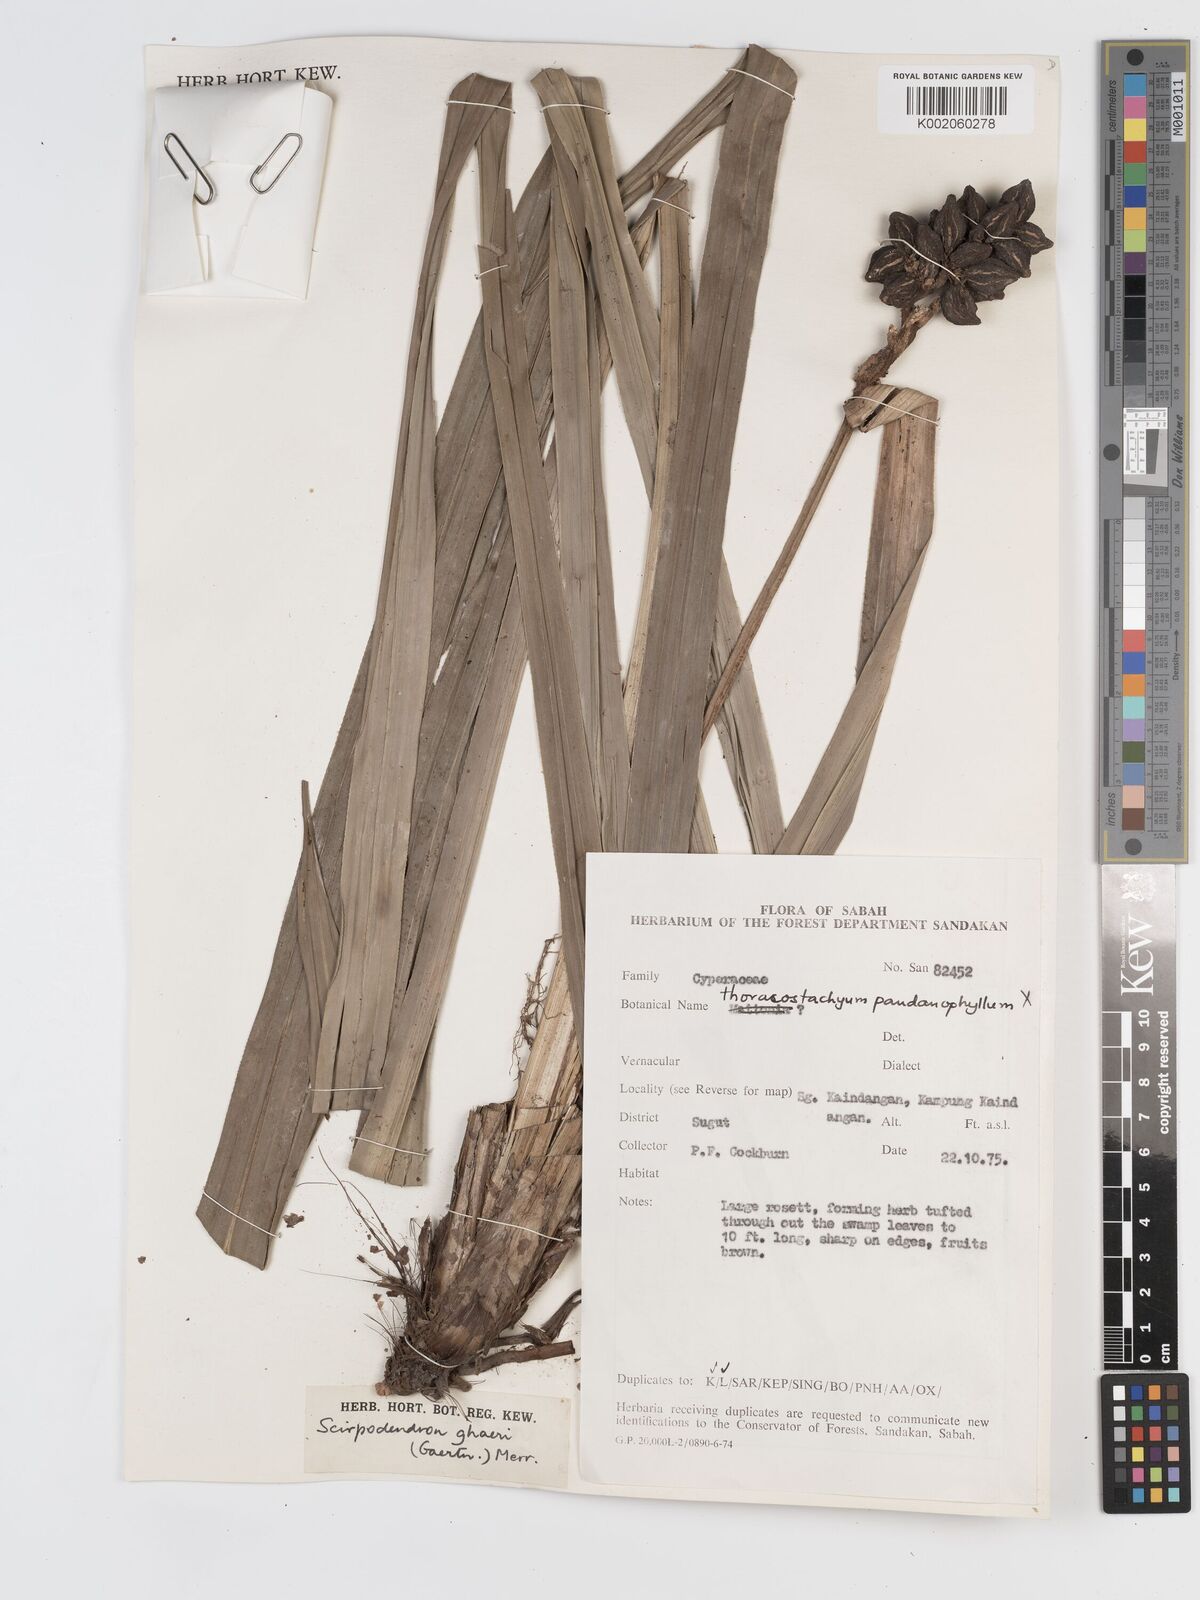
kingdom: Plantae
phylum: Tracheophyta
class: Liliopsida
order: Poales
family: Cyperaceae
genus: Scirpodendron
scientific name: Scirpodendron ghaeri
